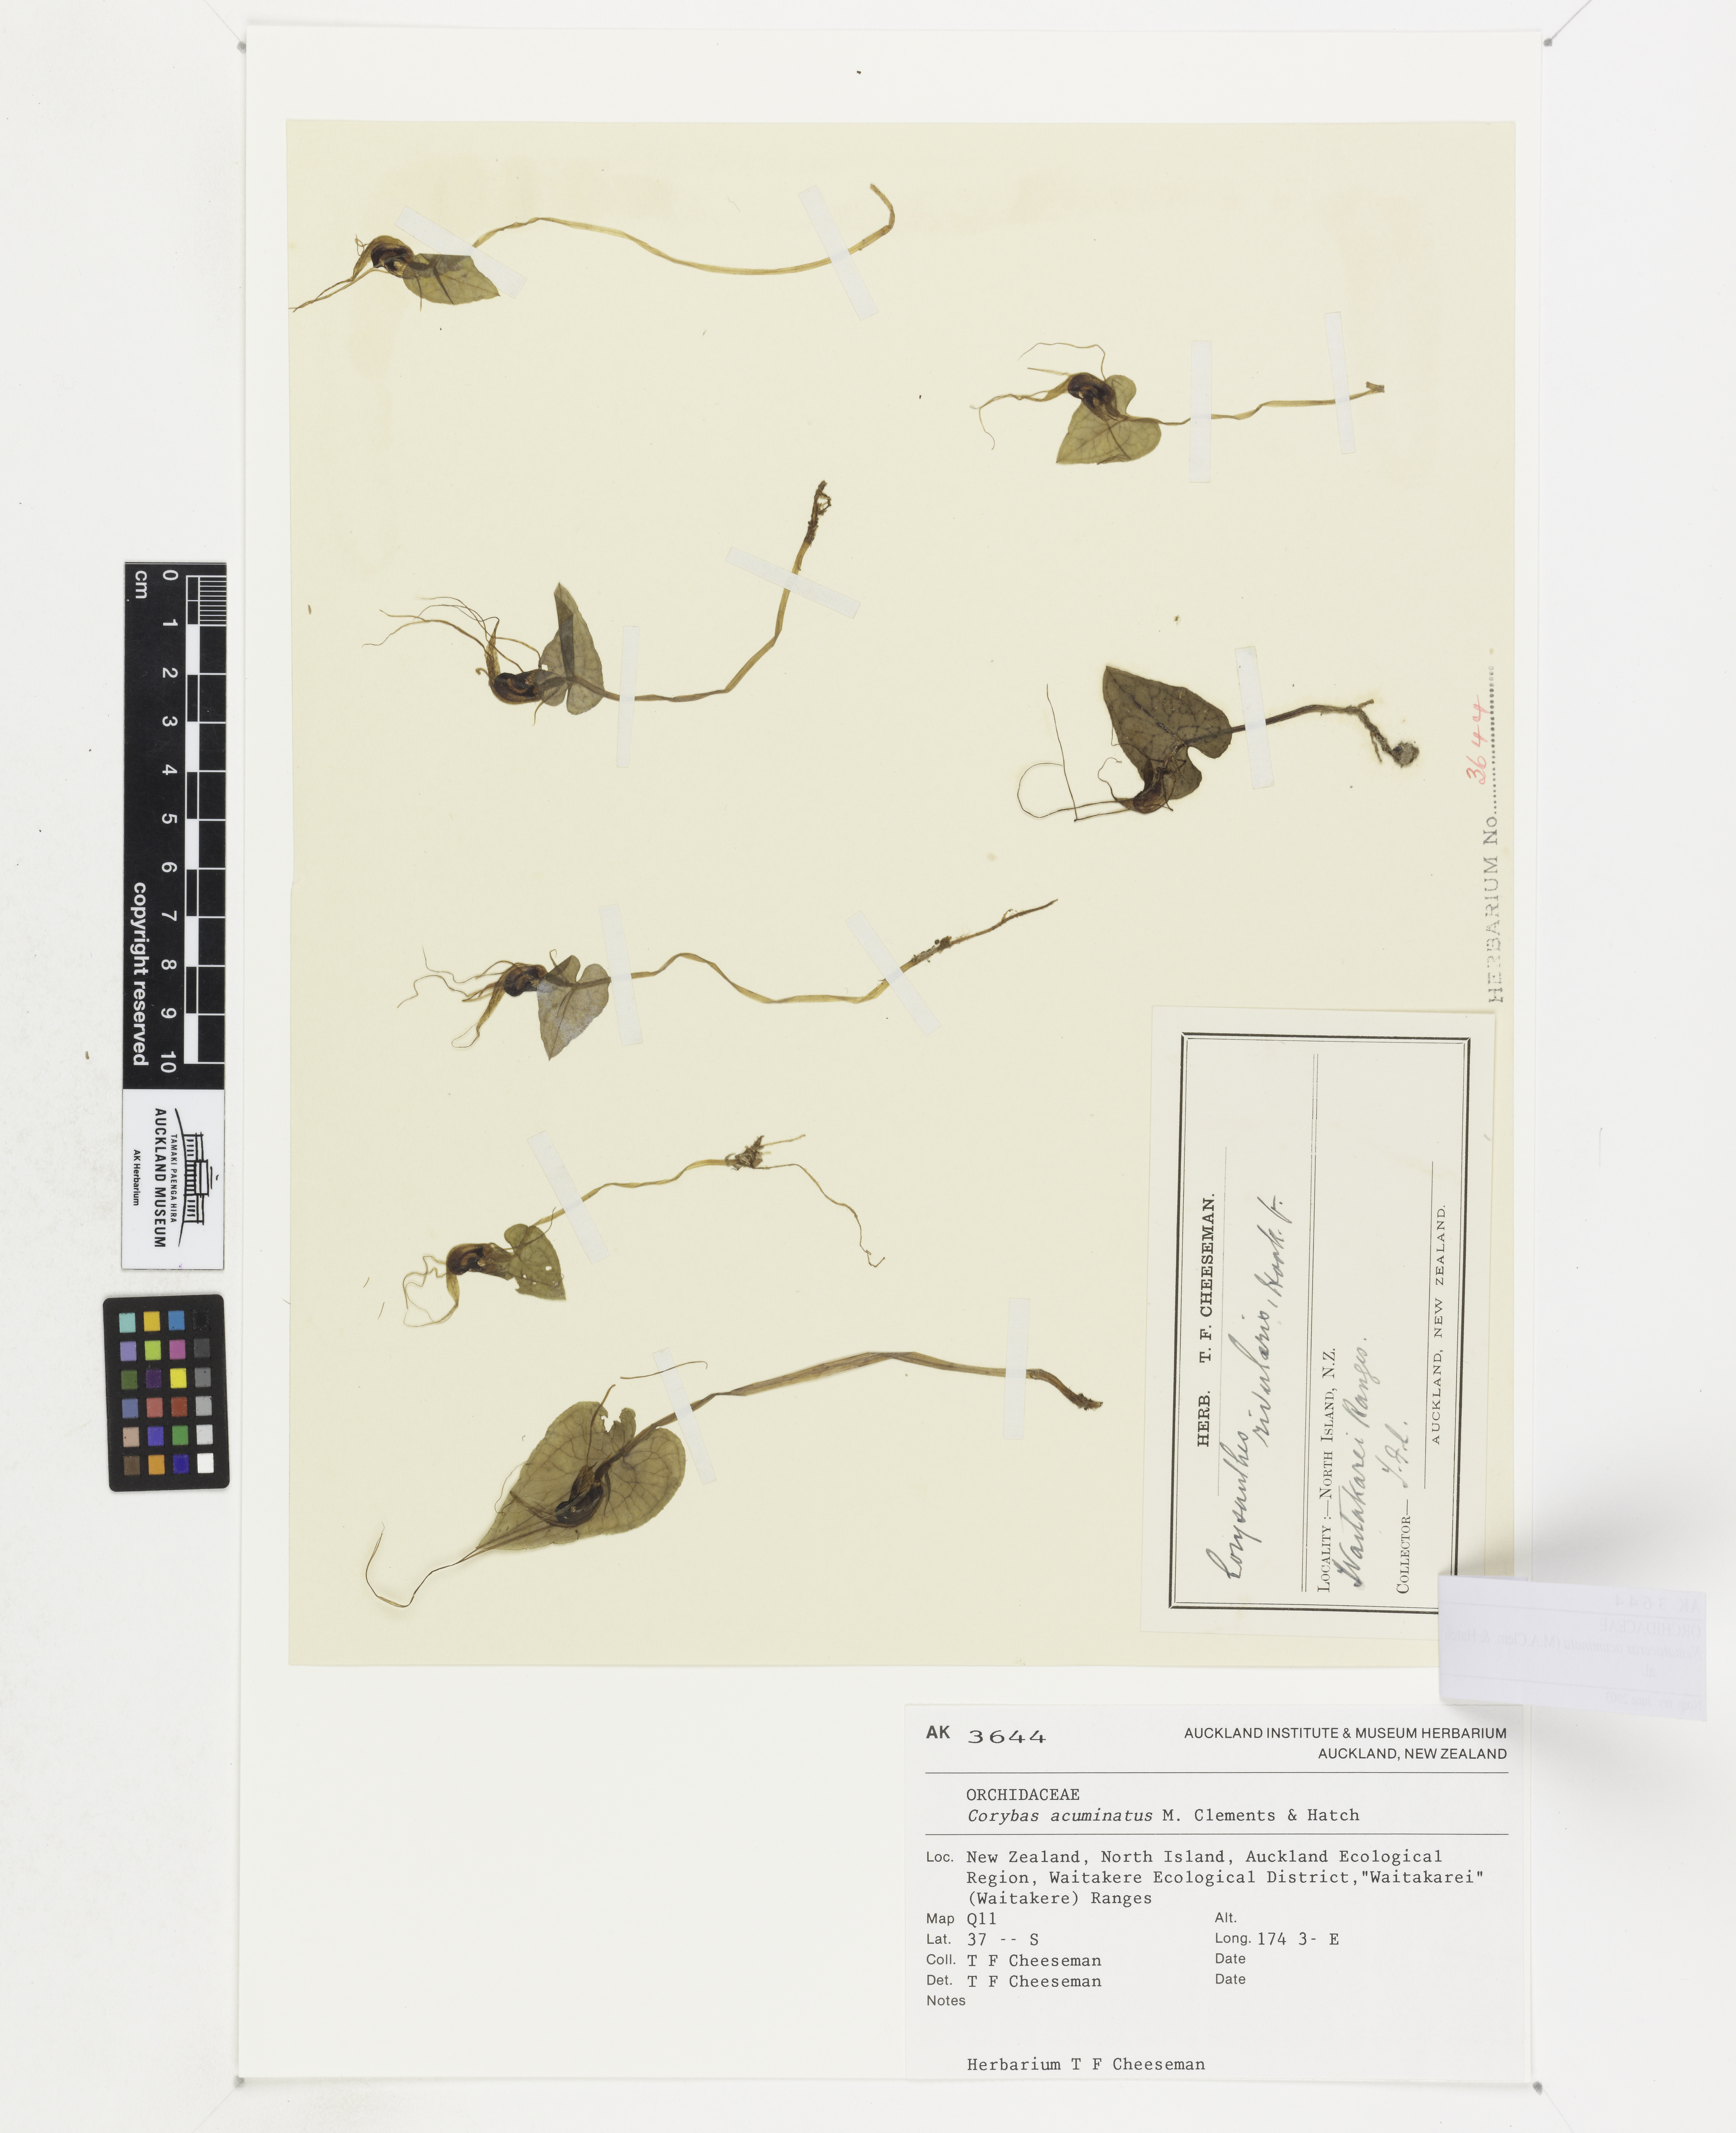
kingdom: Plantae
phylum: Tracheophyta
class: Liliopsida
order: Asparagales
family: Orchidaceae
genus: Corybas
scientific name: Corybas acuminatus
